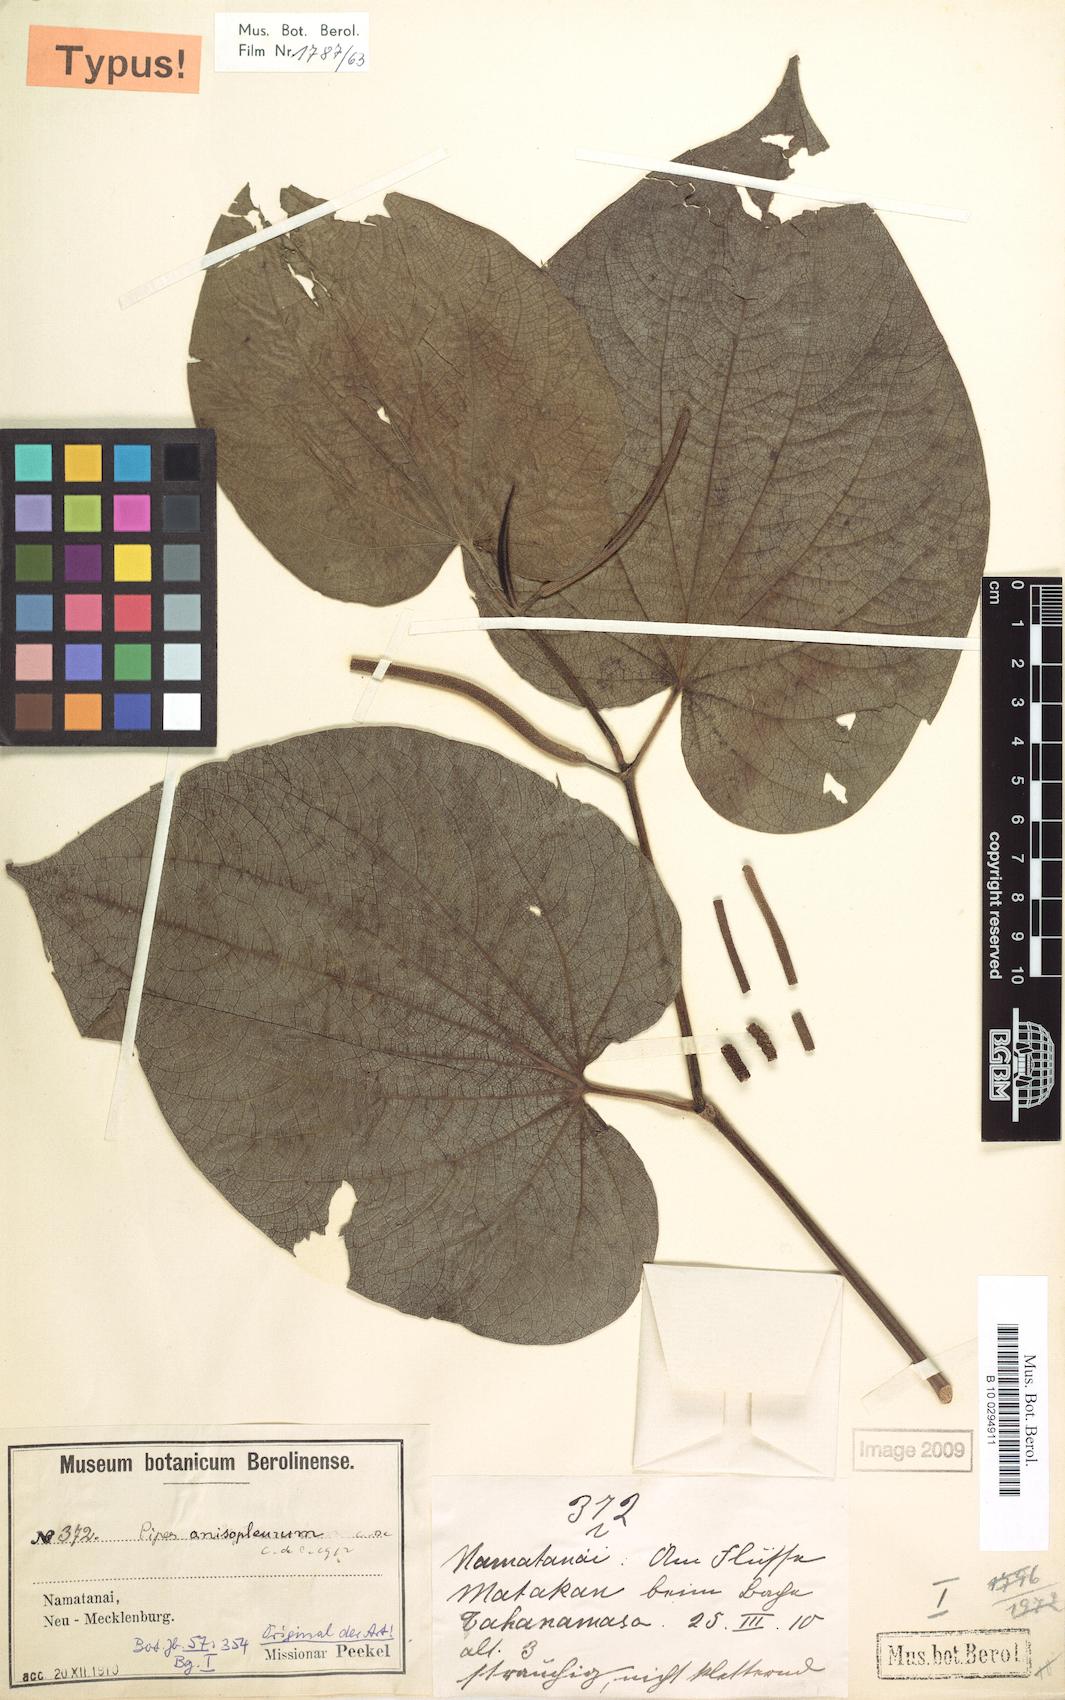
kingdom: Plantae
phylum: Tracheophyta
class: Magnoliopsida
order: Piperales
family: Piperaceae
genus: Piper
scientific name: Piper anisopleurum
